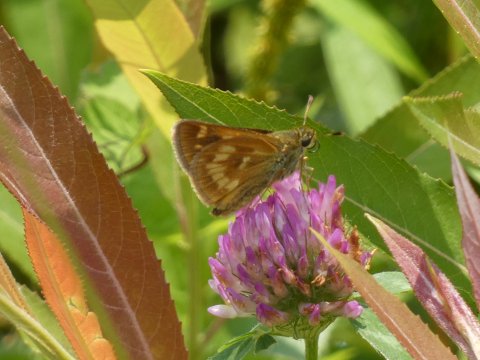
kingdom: Animalia
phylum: Arthropoda
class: Insecta
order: Lepidoptera
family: Hesperiidae
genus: Polites
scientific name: Polites
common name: Long Dash Skipper
